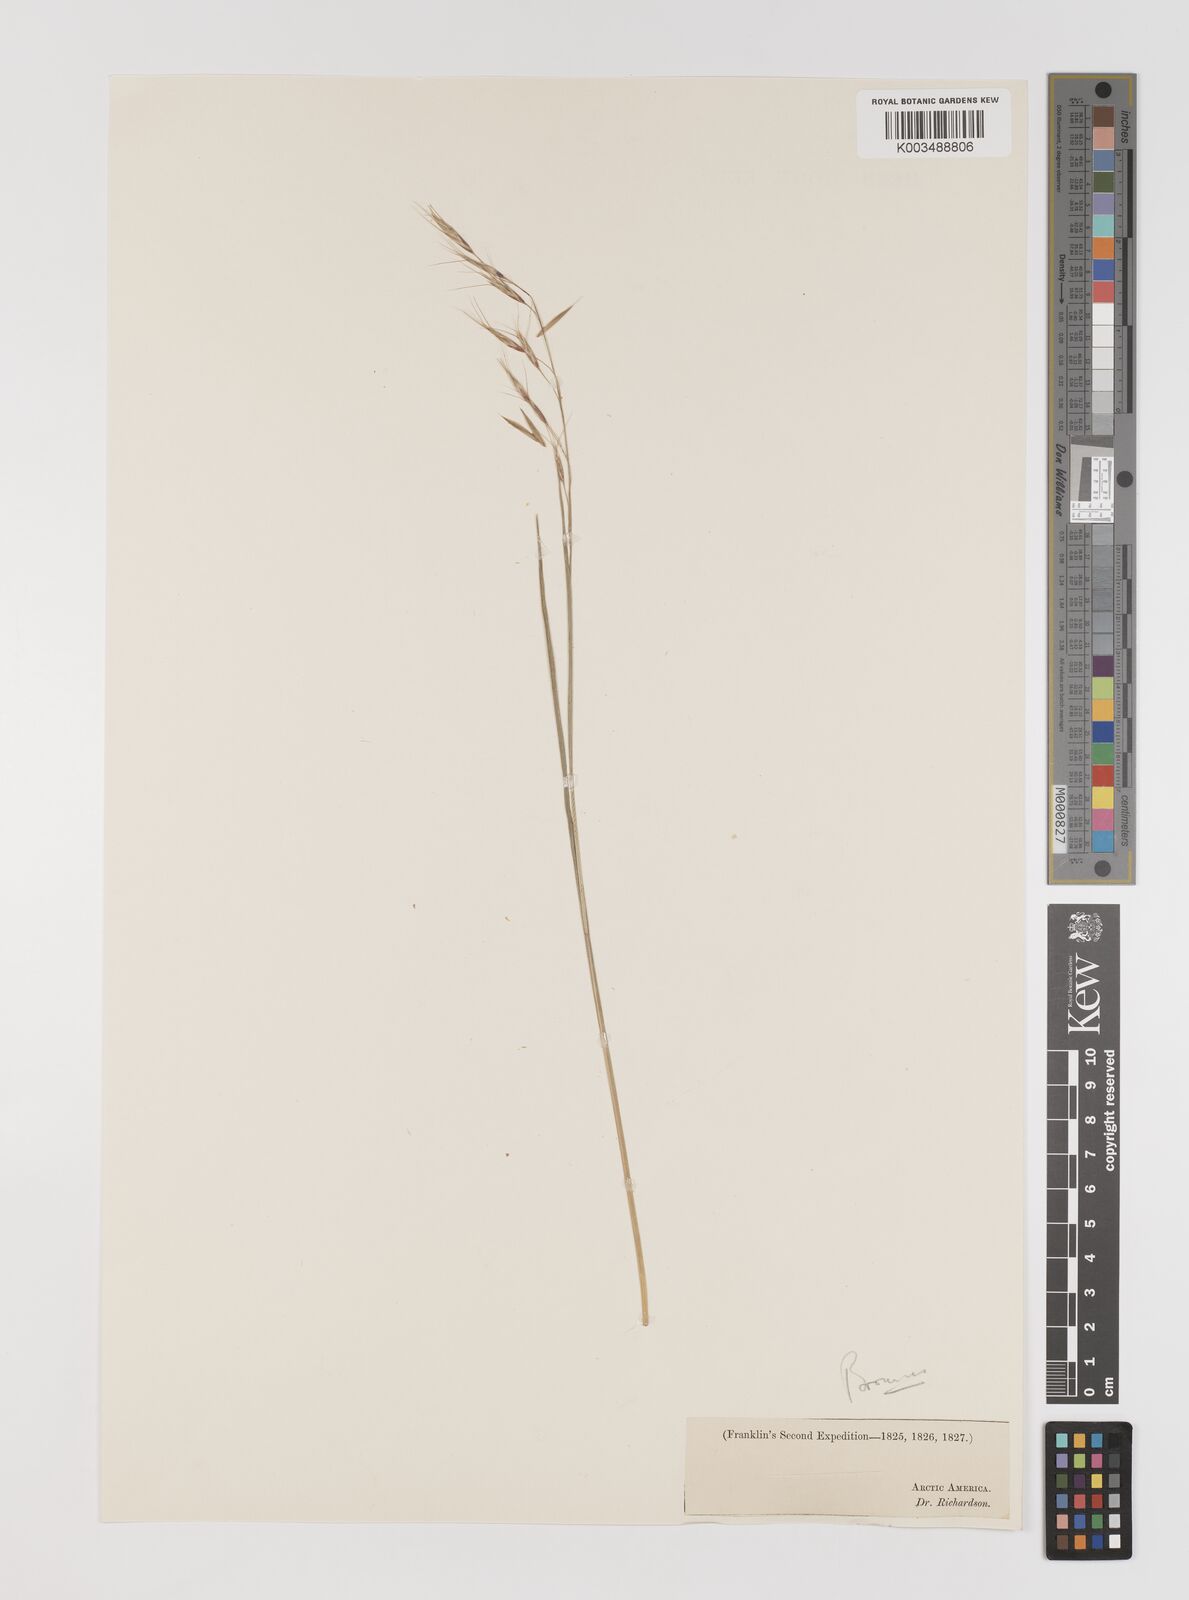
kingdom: Plantae
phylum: Tracheophyta
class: Liliopsida
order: Poales
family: Poaceae
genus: Bromus
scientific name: Bromus
